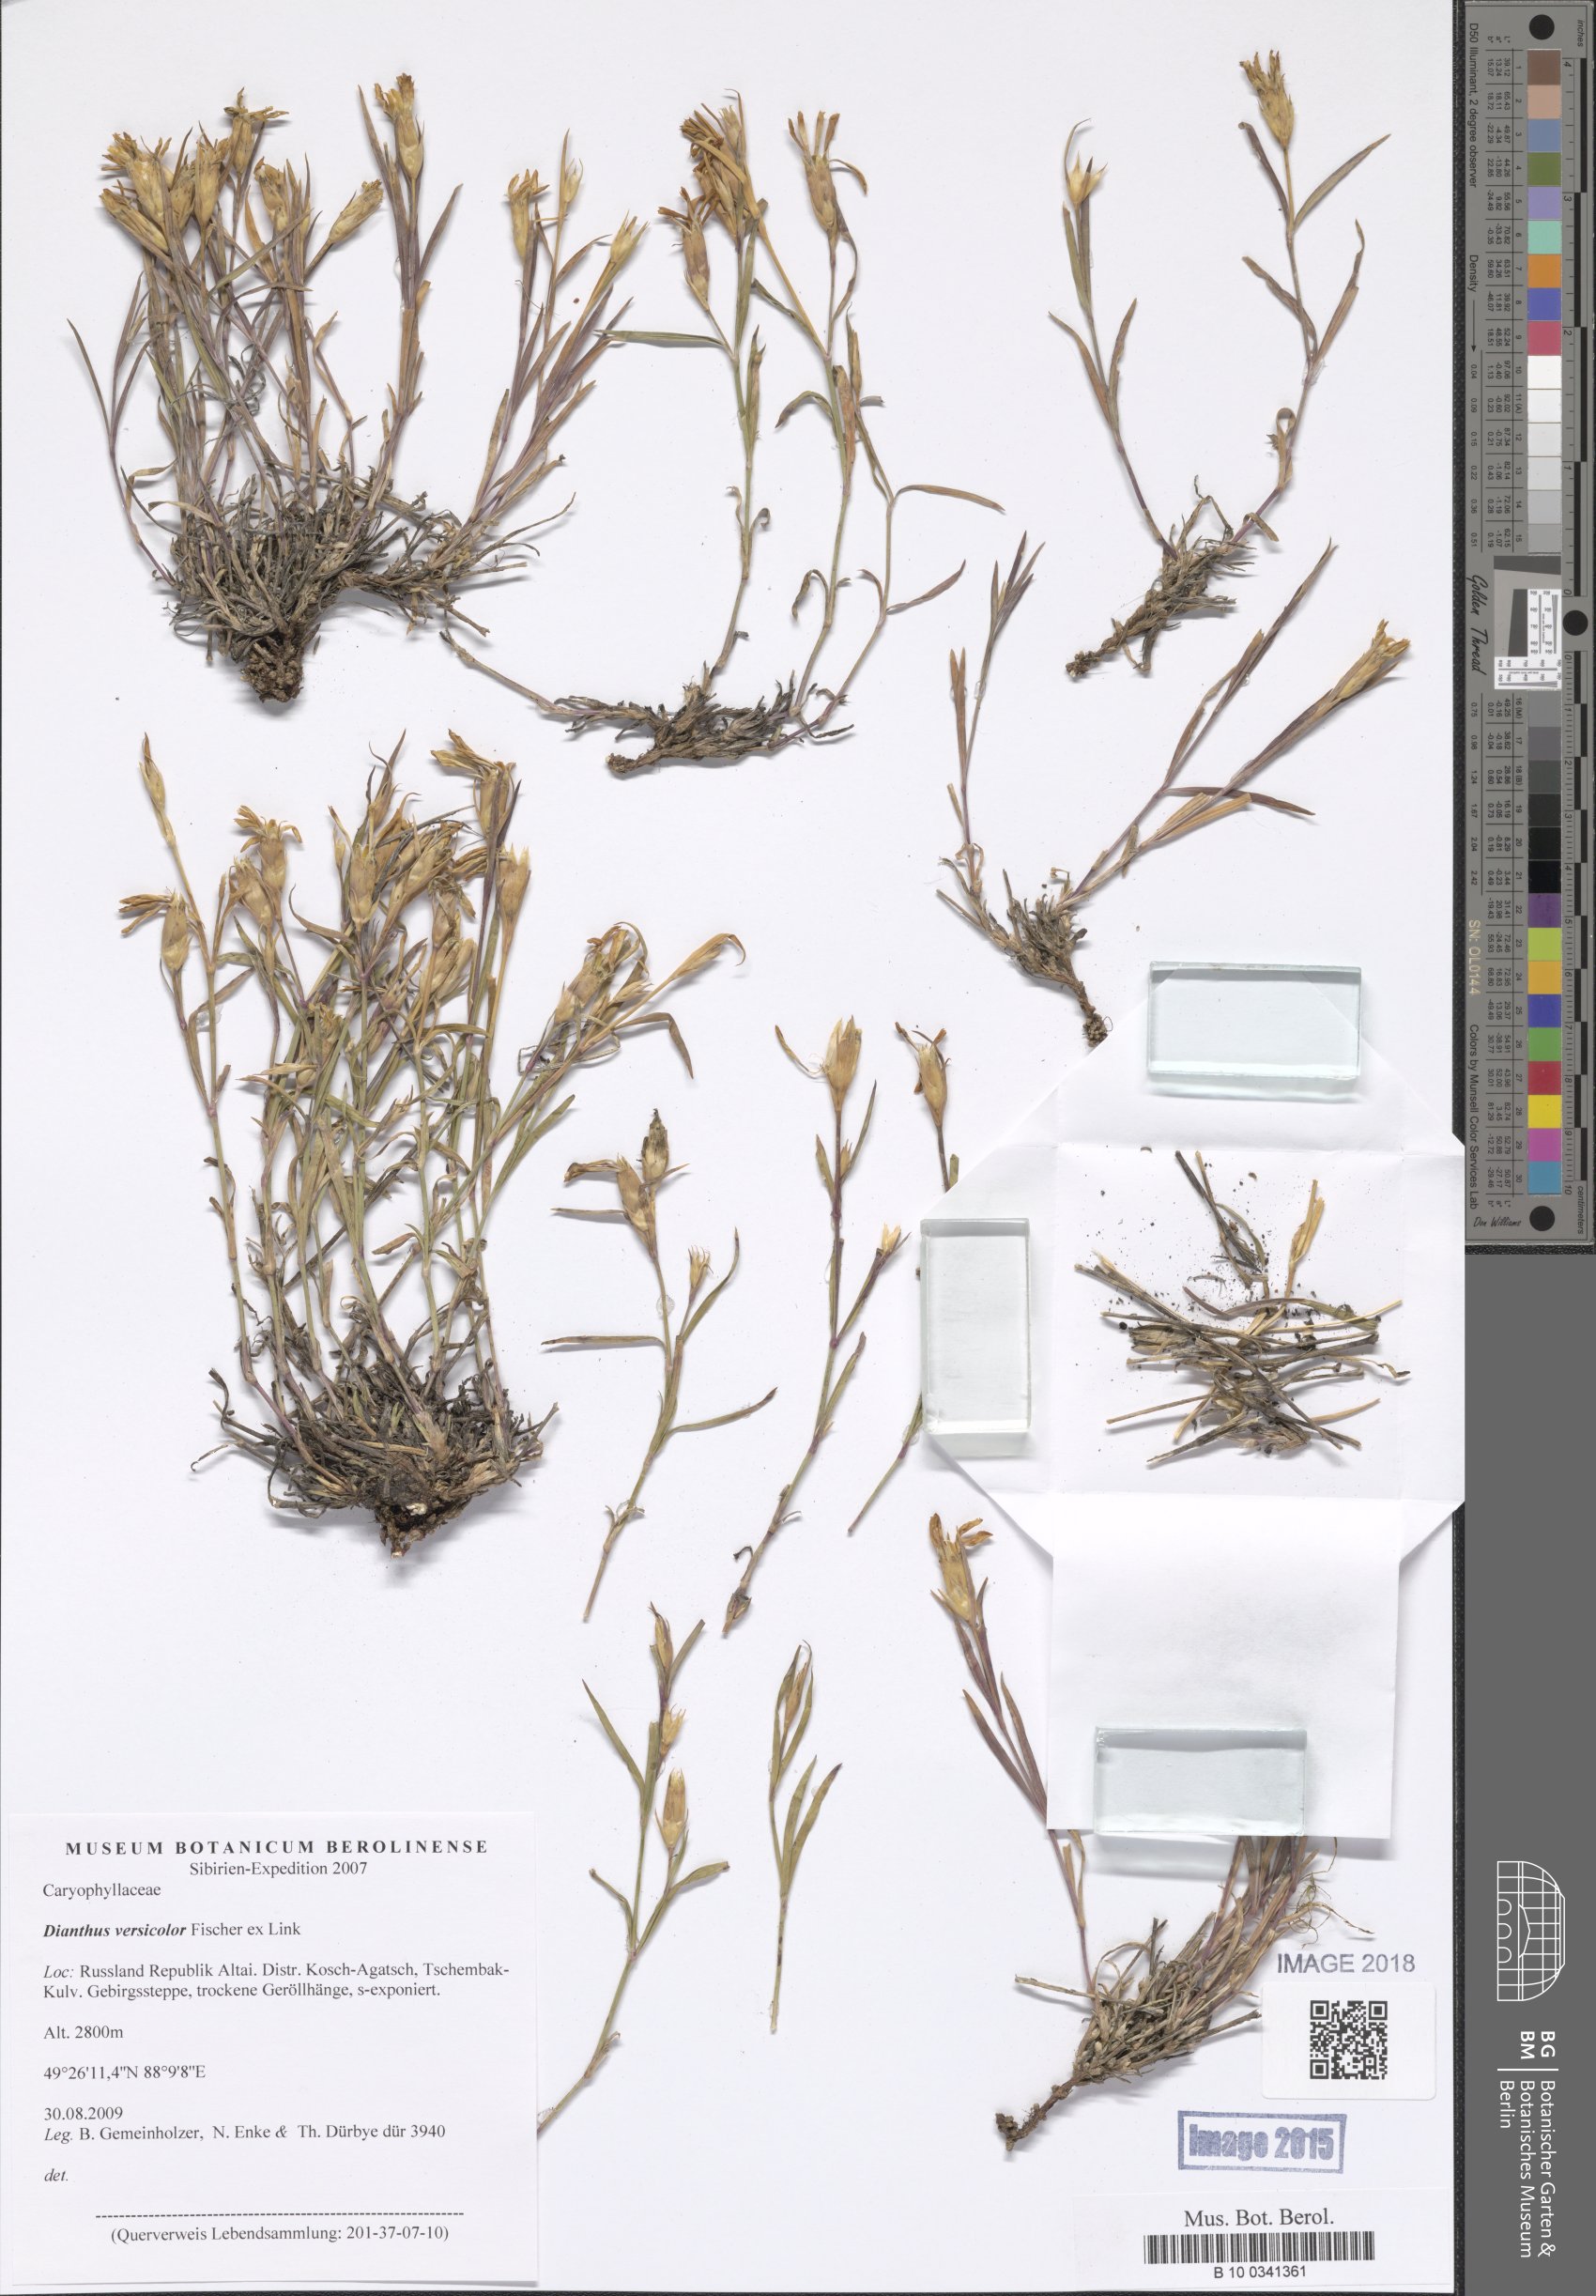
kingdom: Plantae
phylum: Tracheophyta
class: Magnoliopsida
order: Caryophyllales
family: Caryophyllaceae
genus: Dianthus
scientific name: Dianthus chinensis
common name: Rainbow pink
